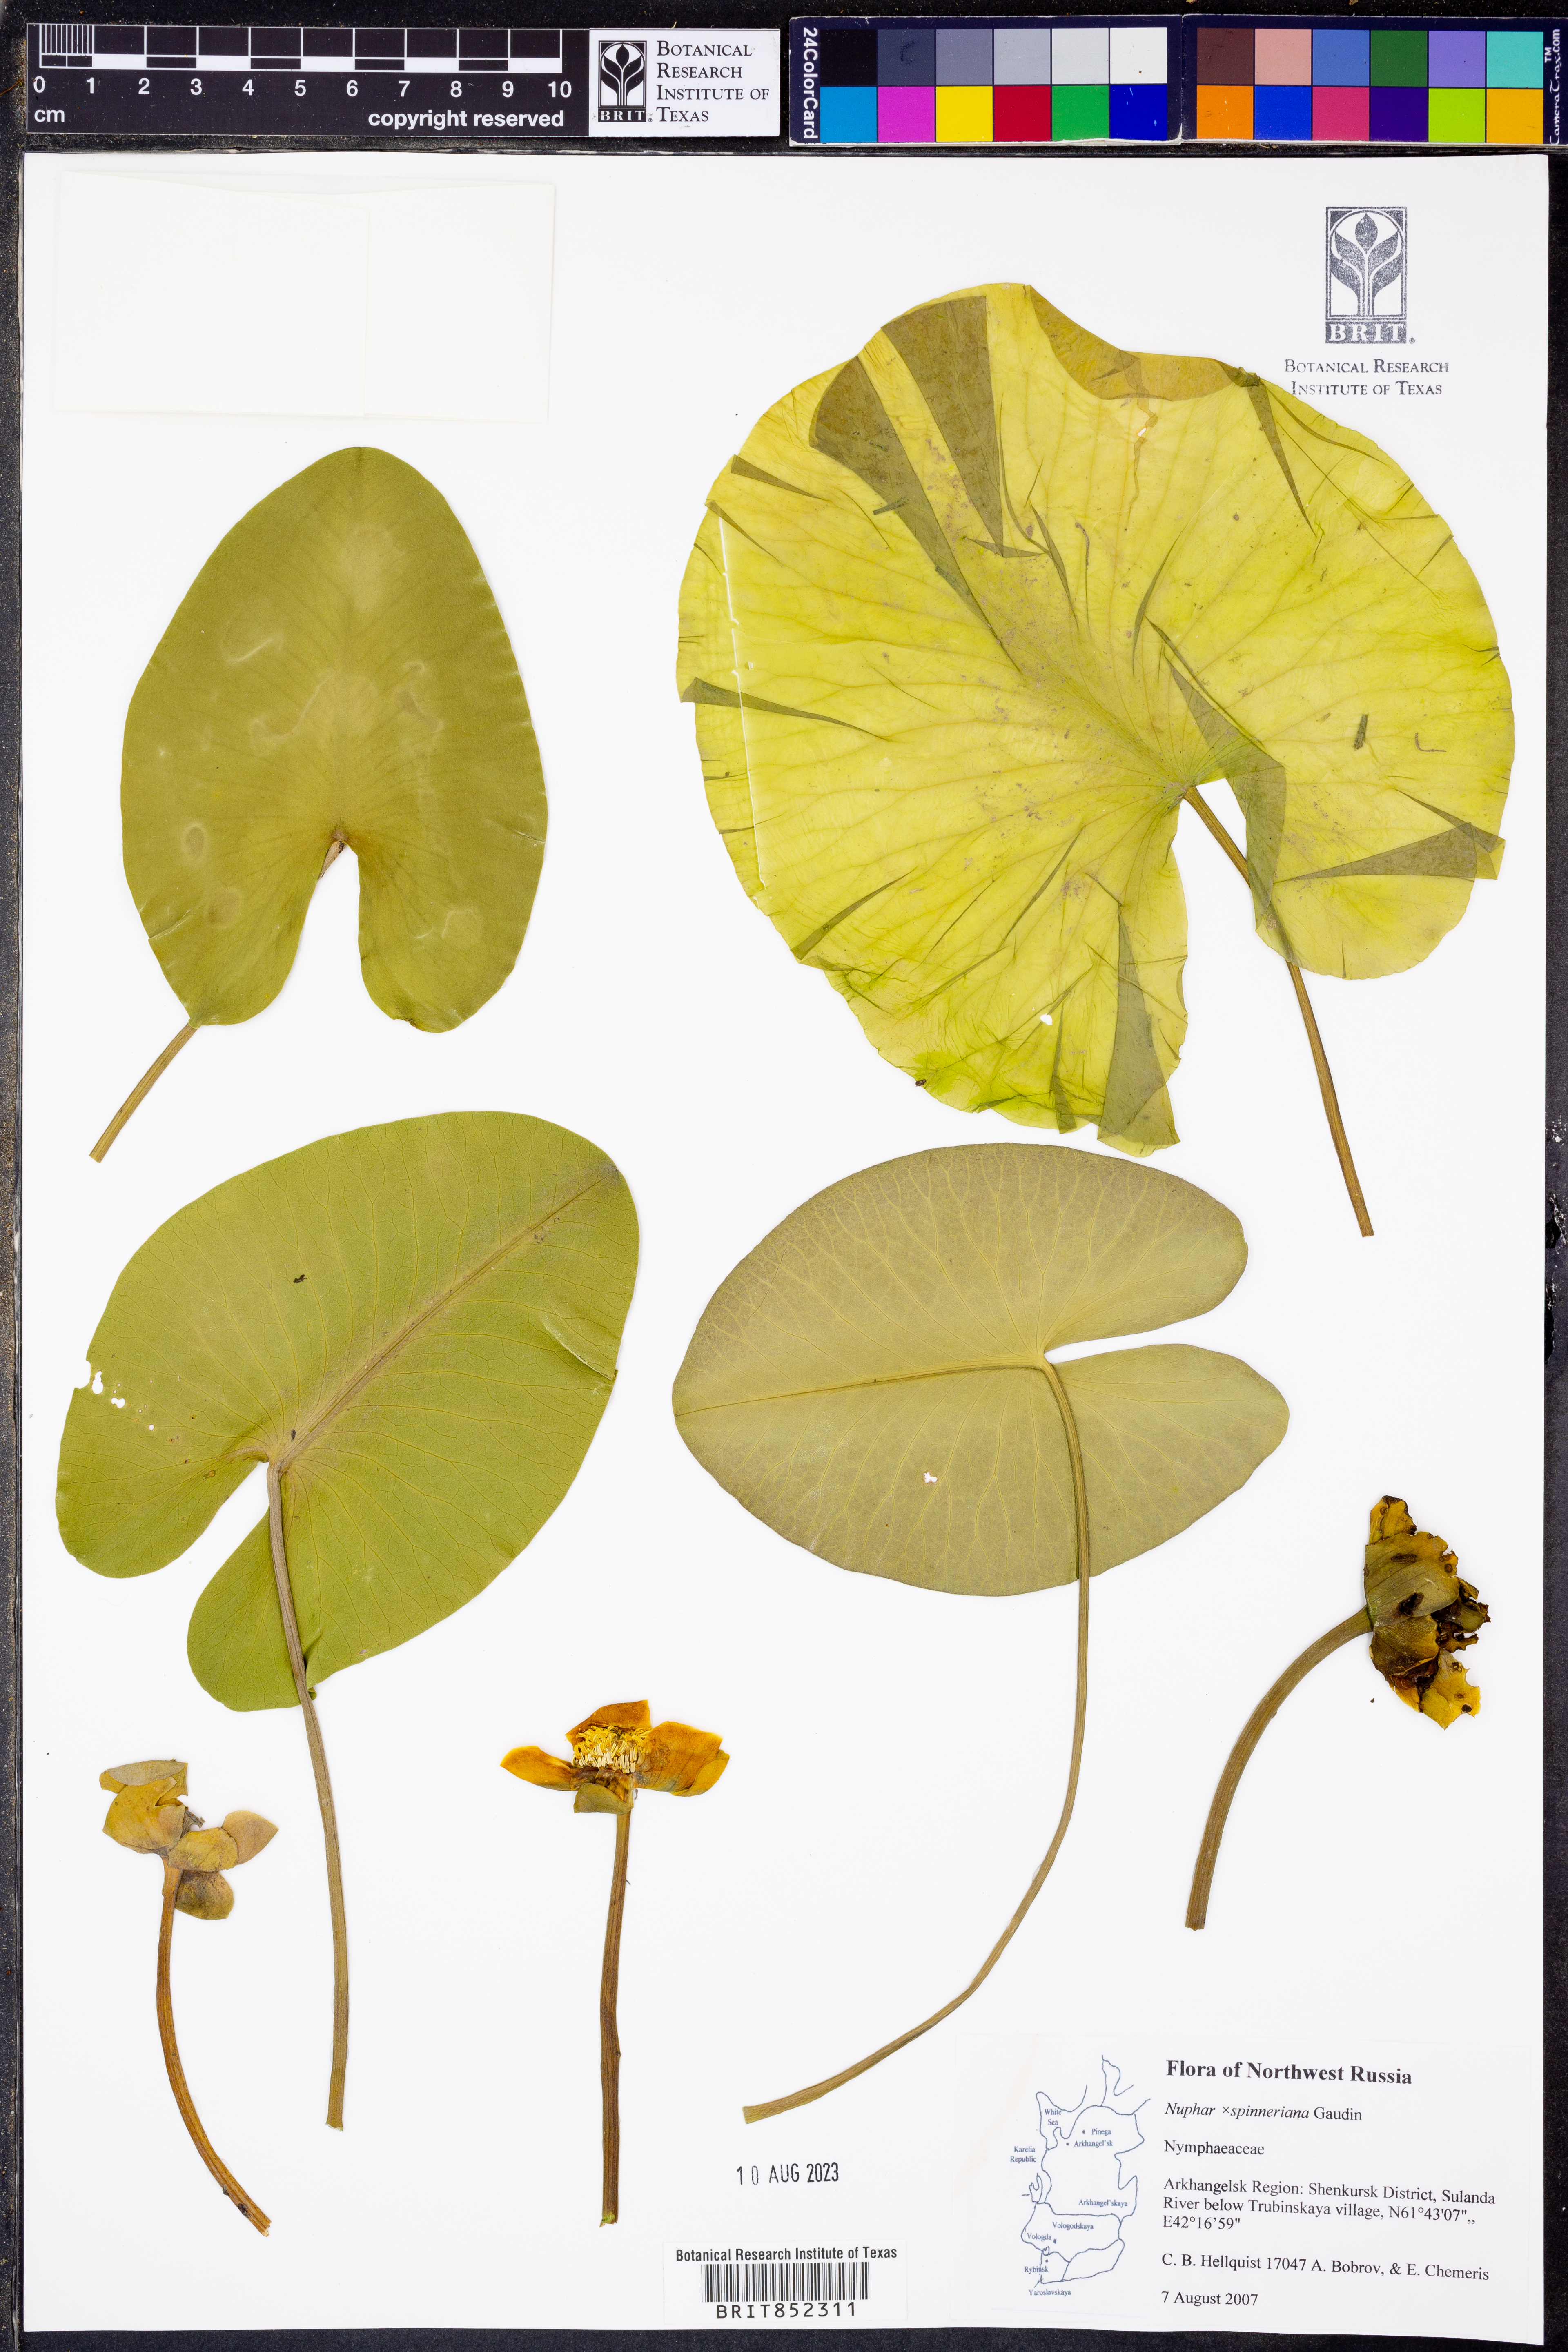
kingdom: Plantae
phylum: Tracheophyta
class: Magnoliopsida
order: Nymphaeales
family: Nymphaeaceae
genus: Nuphar
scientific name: Nuphar spenneriana
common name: Hybrid-water-lily
